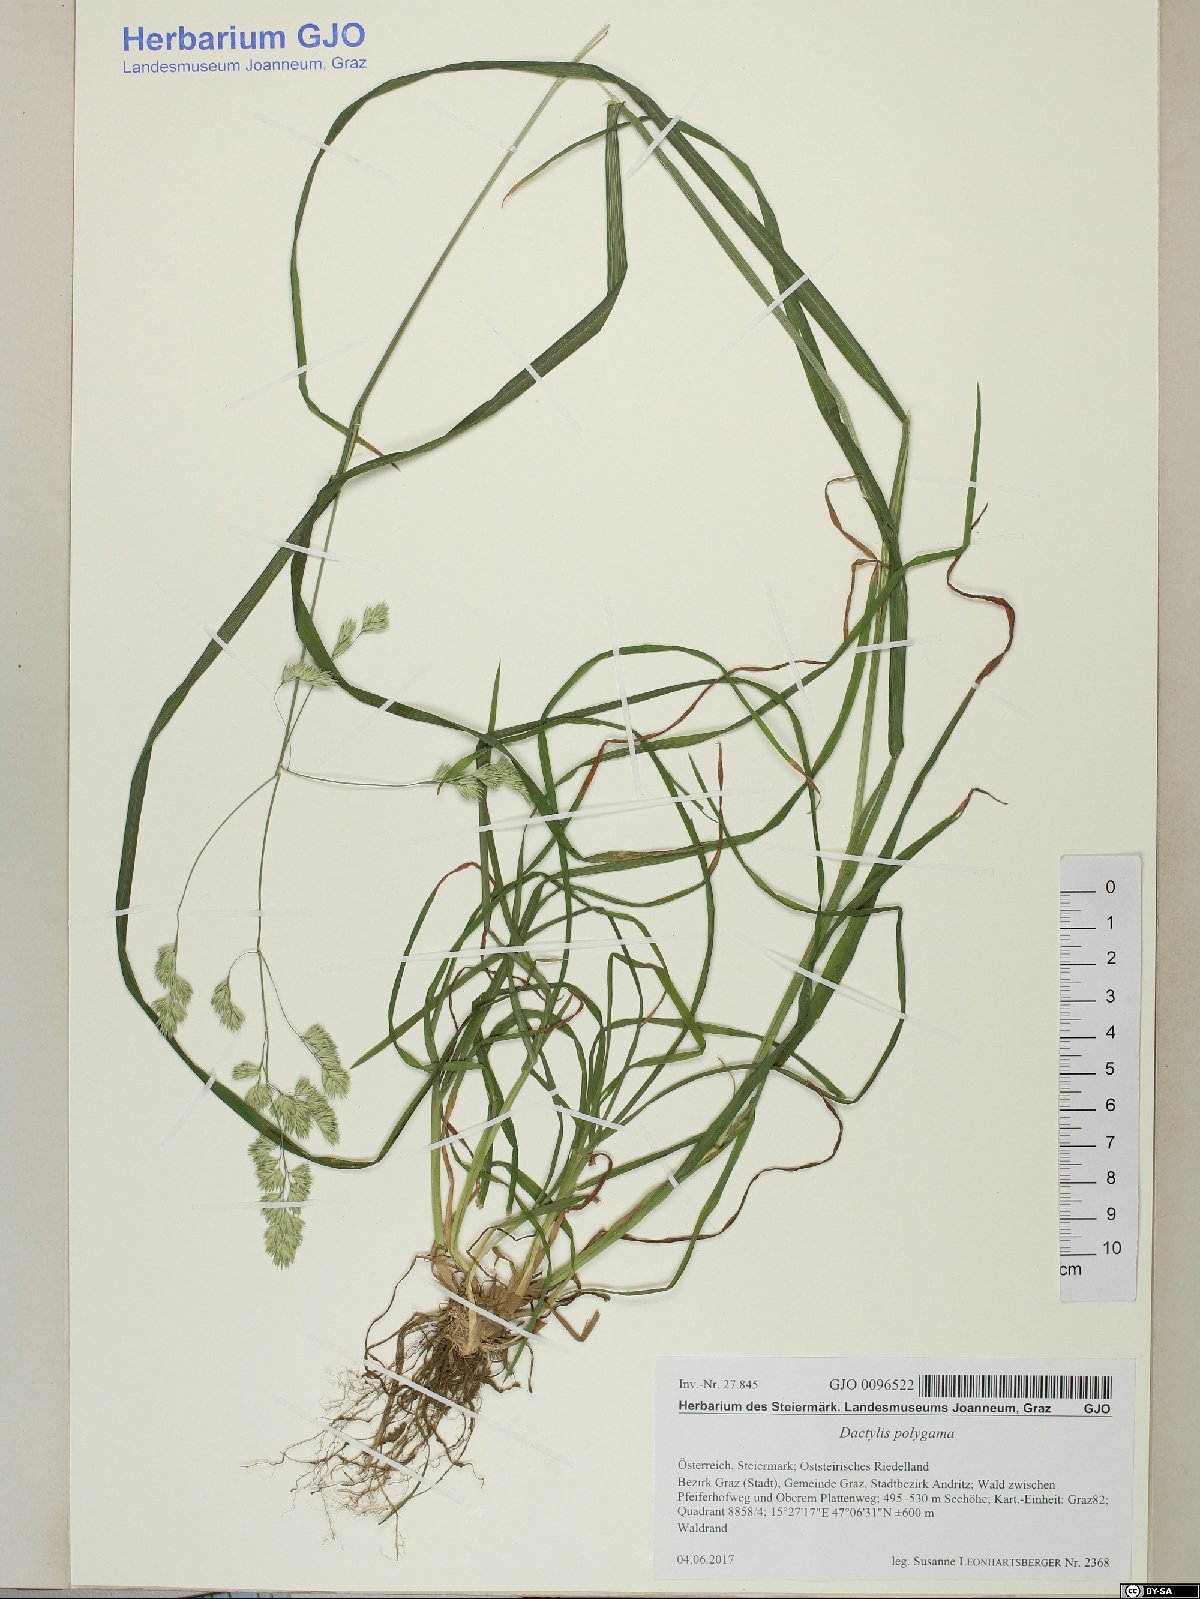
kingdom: Plantae
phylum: Tracheophyta
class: Liliopsida
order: Poales
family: Poaceae
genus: Dactylis
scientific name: Dactylis glomerata
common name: Orchardgrass
